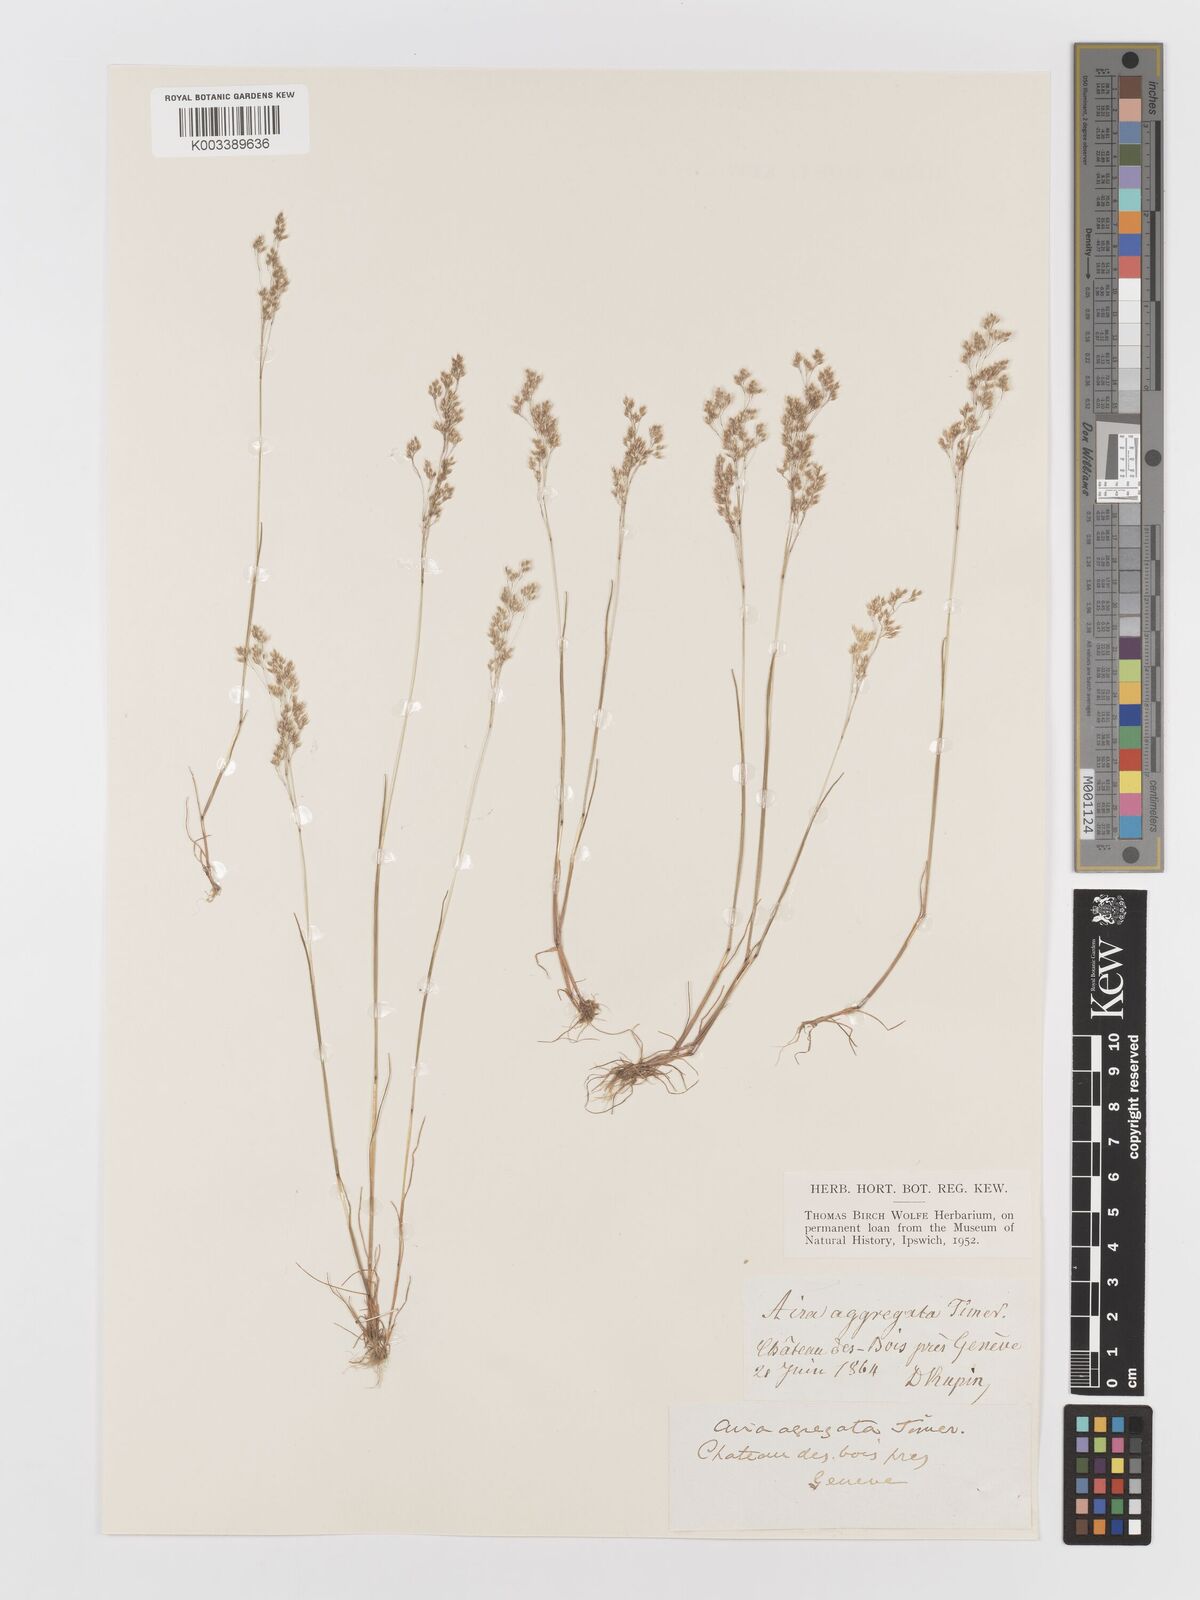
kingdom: Plantae
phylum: Tracheophyta
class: Liliopsida
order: Poales
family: Poaceae
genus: Aira
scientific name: Aira caryophyllea
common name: Silver hairgrass
